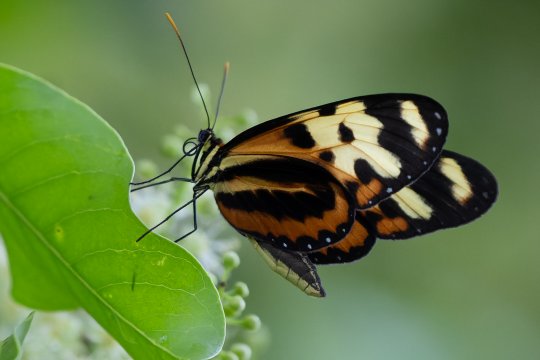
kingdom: Animalia
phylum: Arthropoda
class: Insecta
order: Lepidoptera
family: Nymphalidae
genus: Mechanitis
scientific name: Mechanitis polymnia
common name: Polymnia Tigerwing
